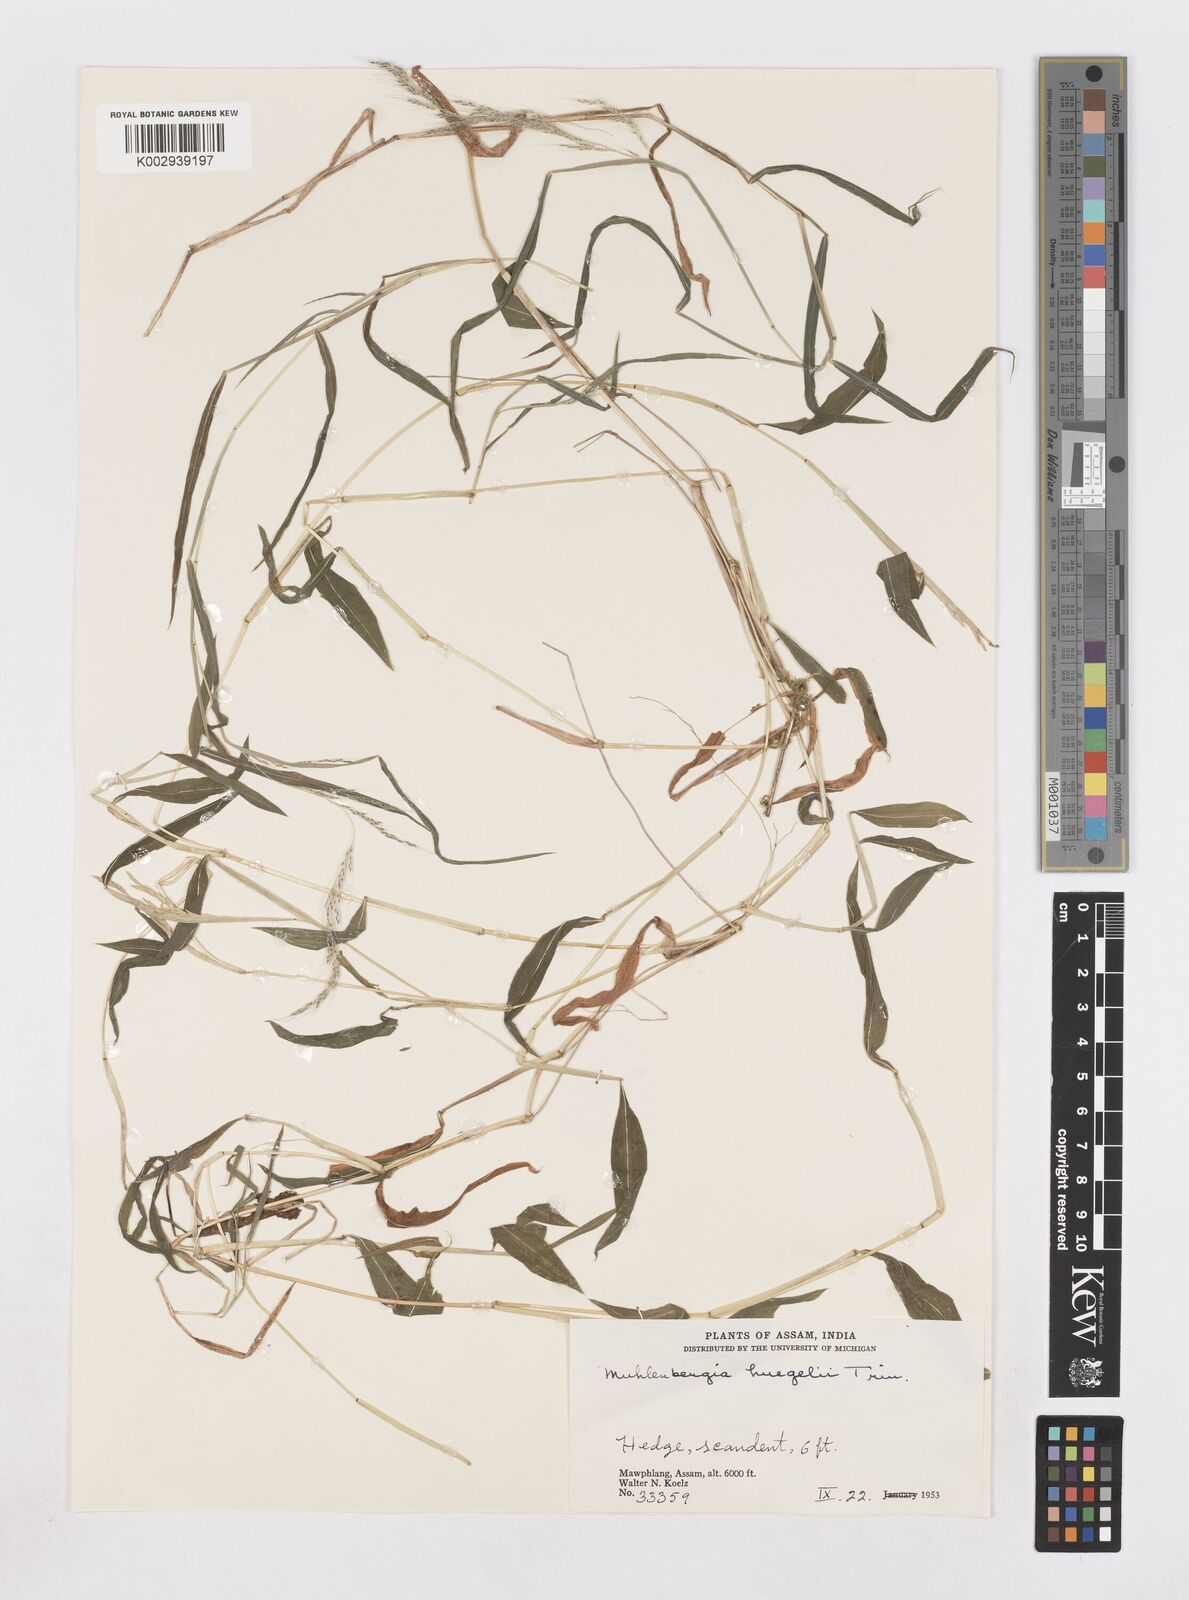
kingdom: Plantae
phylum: Tracheophyta
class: Liliopsida
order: Poales
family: Poaceae
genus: Muhlenbergia
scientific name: Muhlenbergia huegelii
